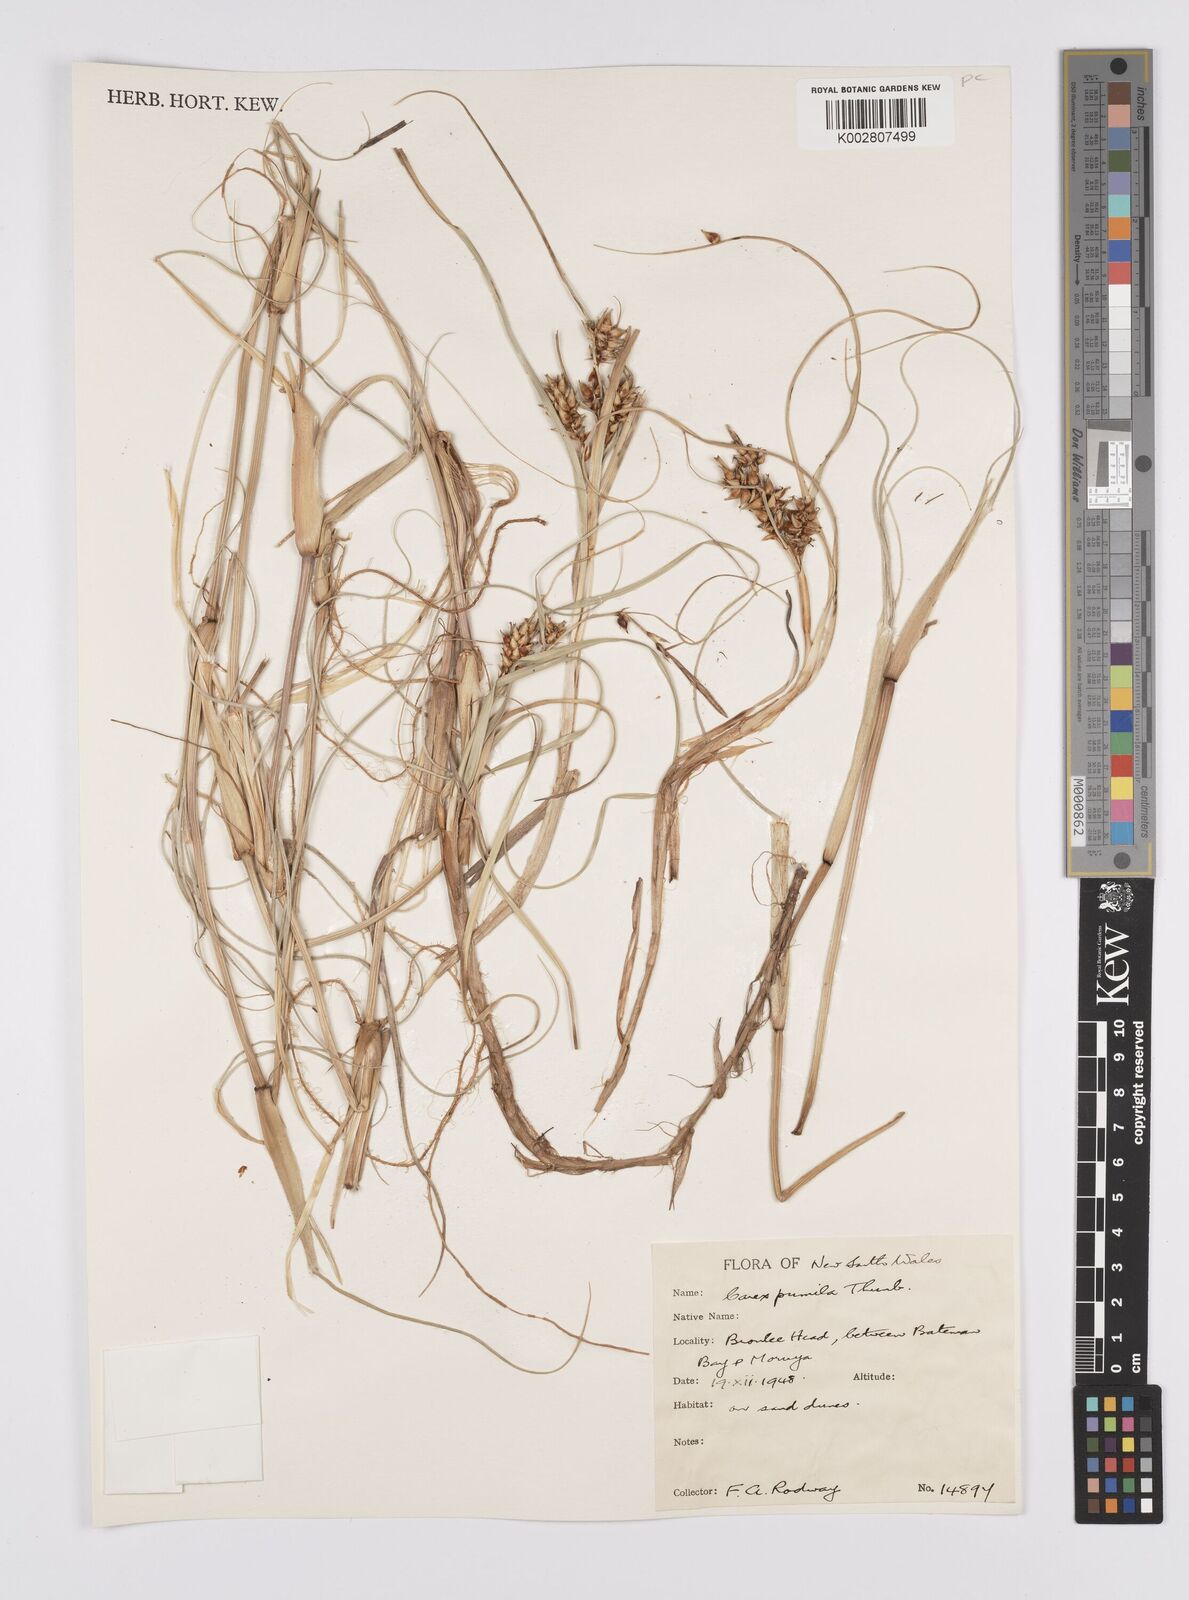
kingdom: Plantae
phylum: Tracheophyta
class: Liliopsida
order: Poales
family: Cyperaceae
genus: Carex
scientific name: Carex pumila
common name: Dwarf sedge
